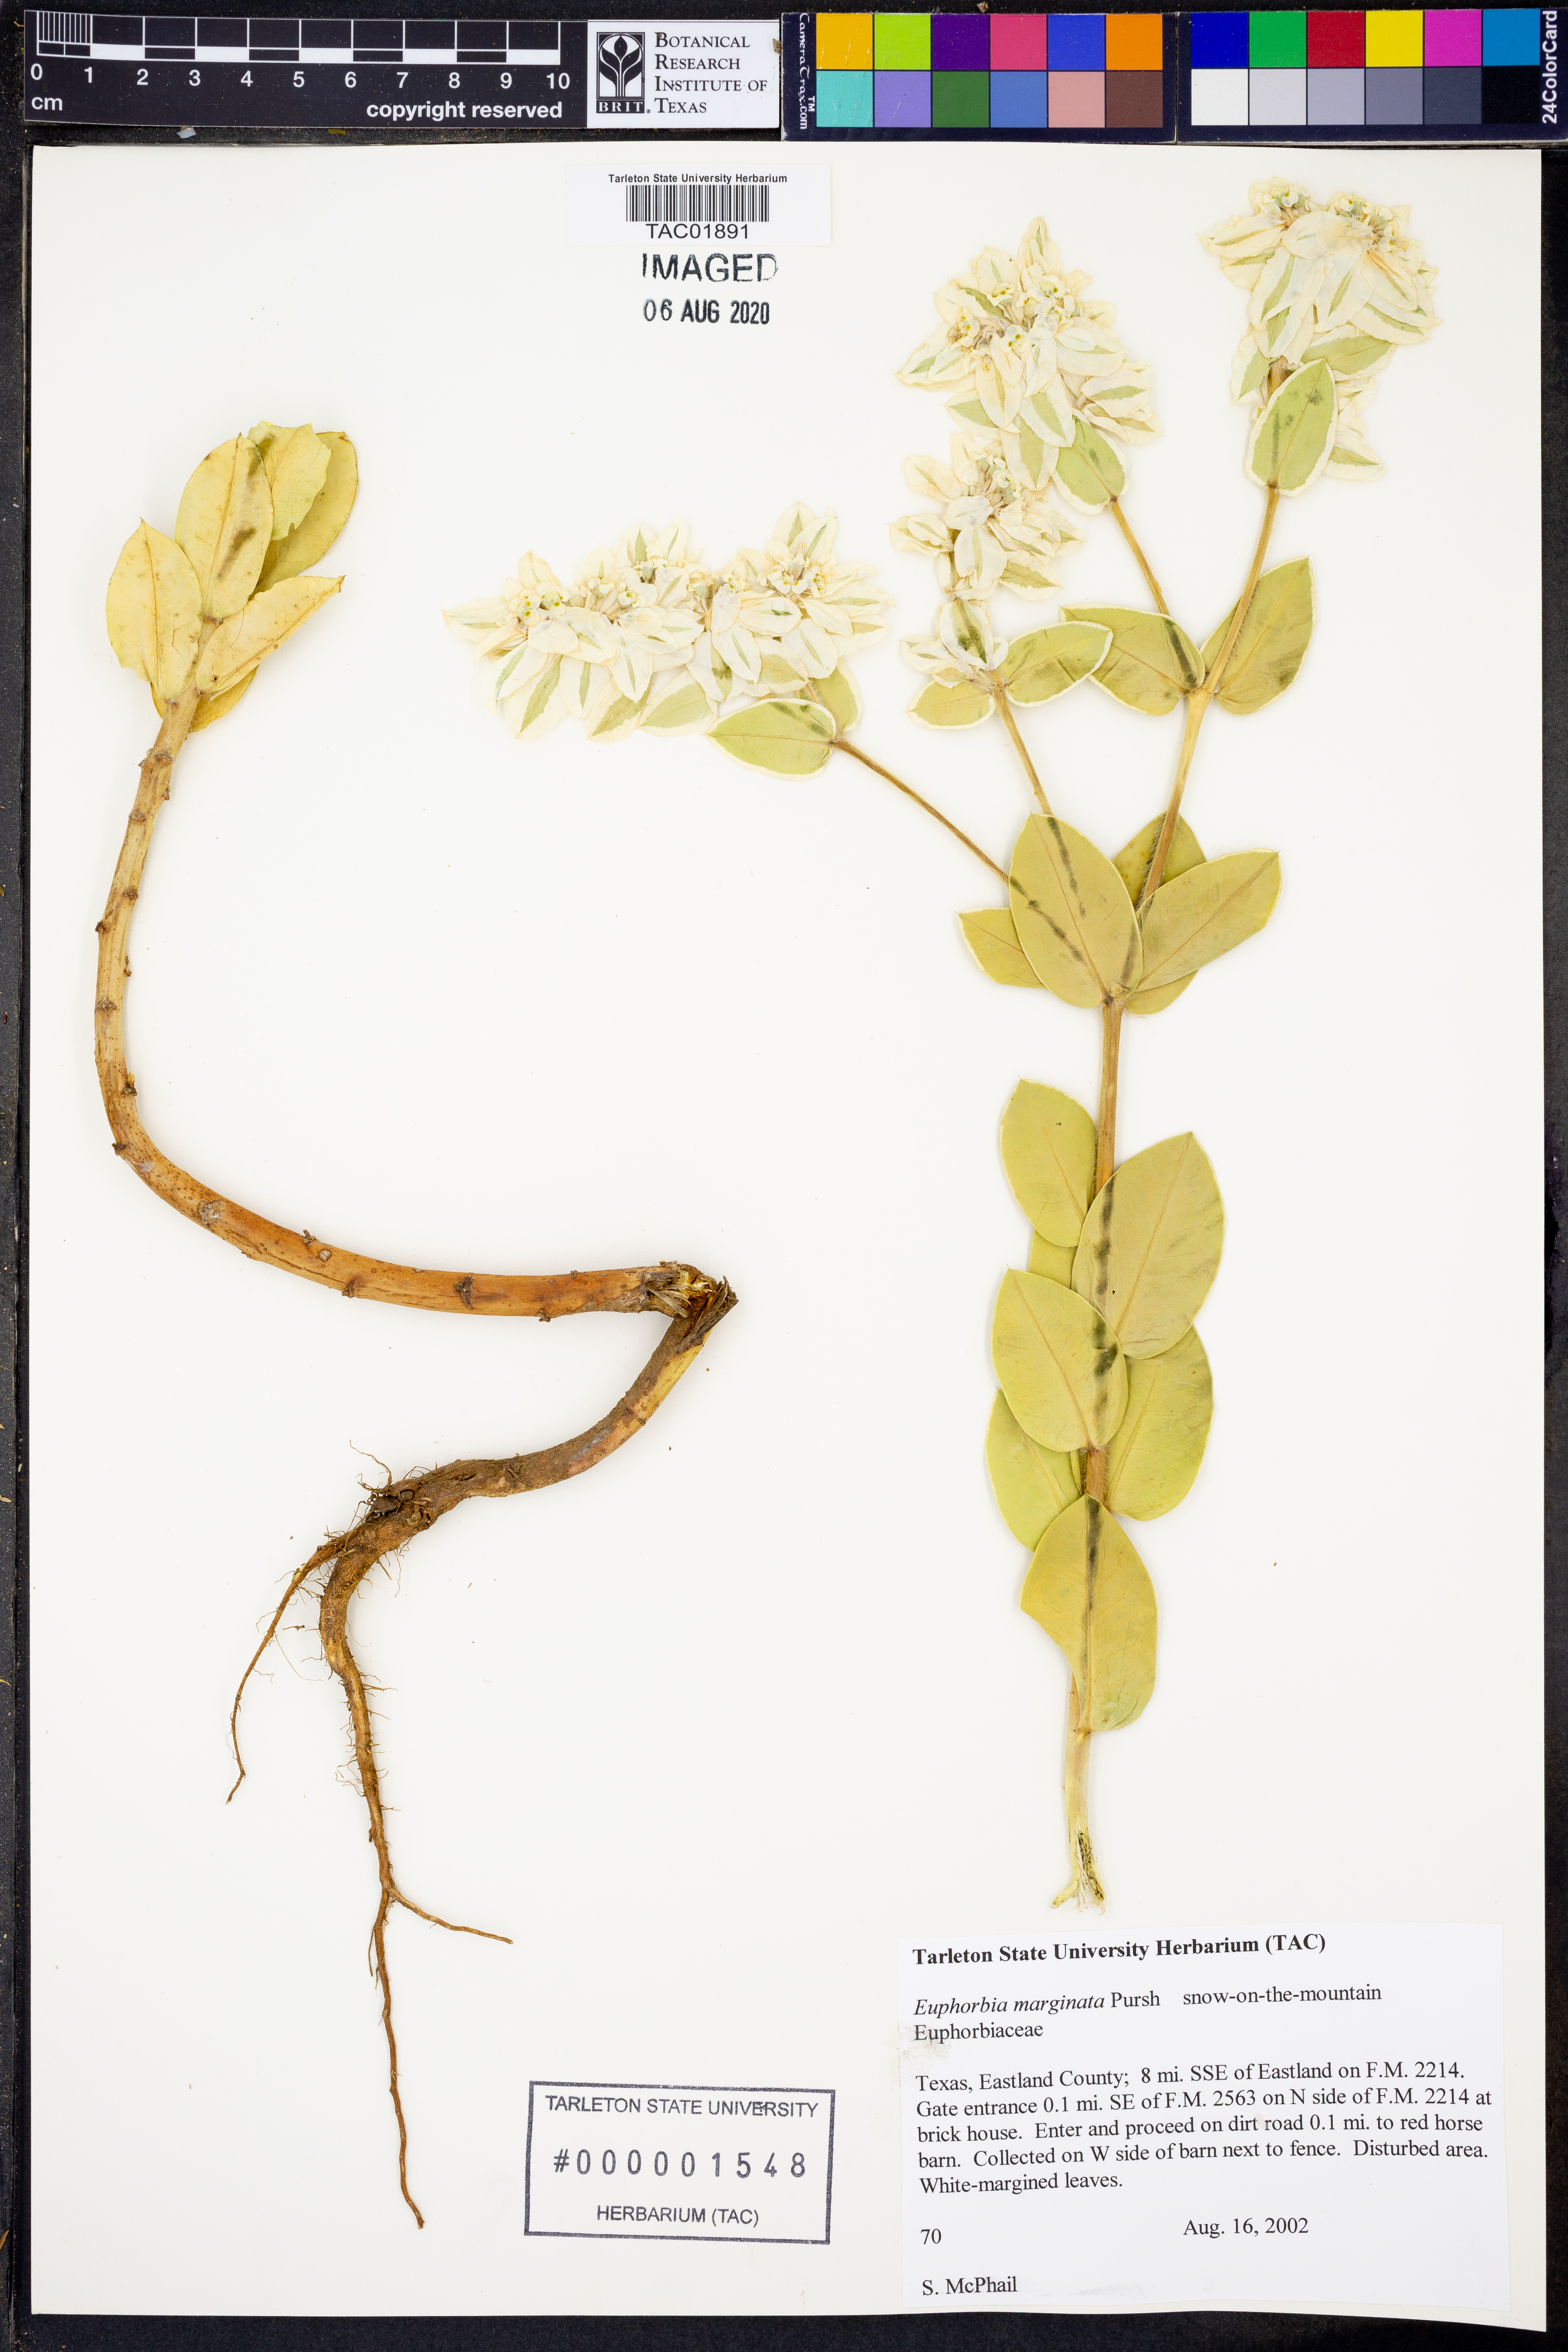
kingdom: Plantae
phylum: Tracheophyta
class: Magnoliopsida
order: Malpighiales
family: Euphorbiaceae
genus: Euphorbia
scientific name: Euphorbia marginata
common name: Ghostweed
